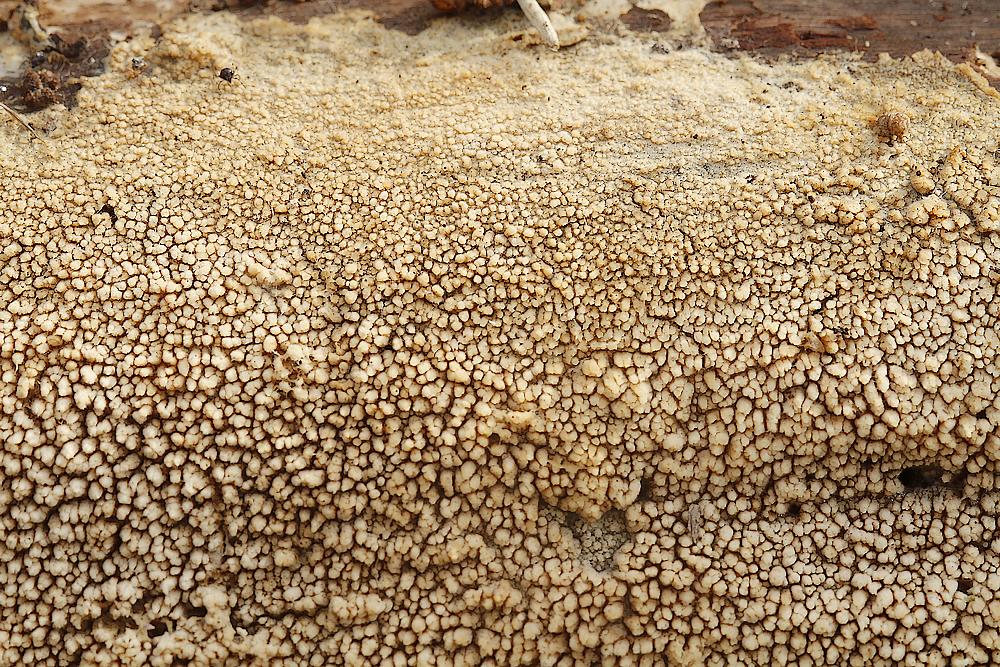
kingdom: Fungi
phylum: Basidiomycota
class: Agaricomycetes
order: Hymenochaetales
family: Hyphodontiaceae
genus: Hyphodontia
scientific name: Hyphodontia barba-jovis
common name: skægget tandsvamp
